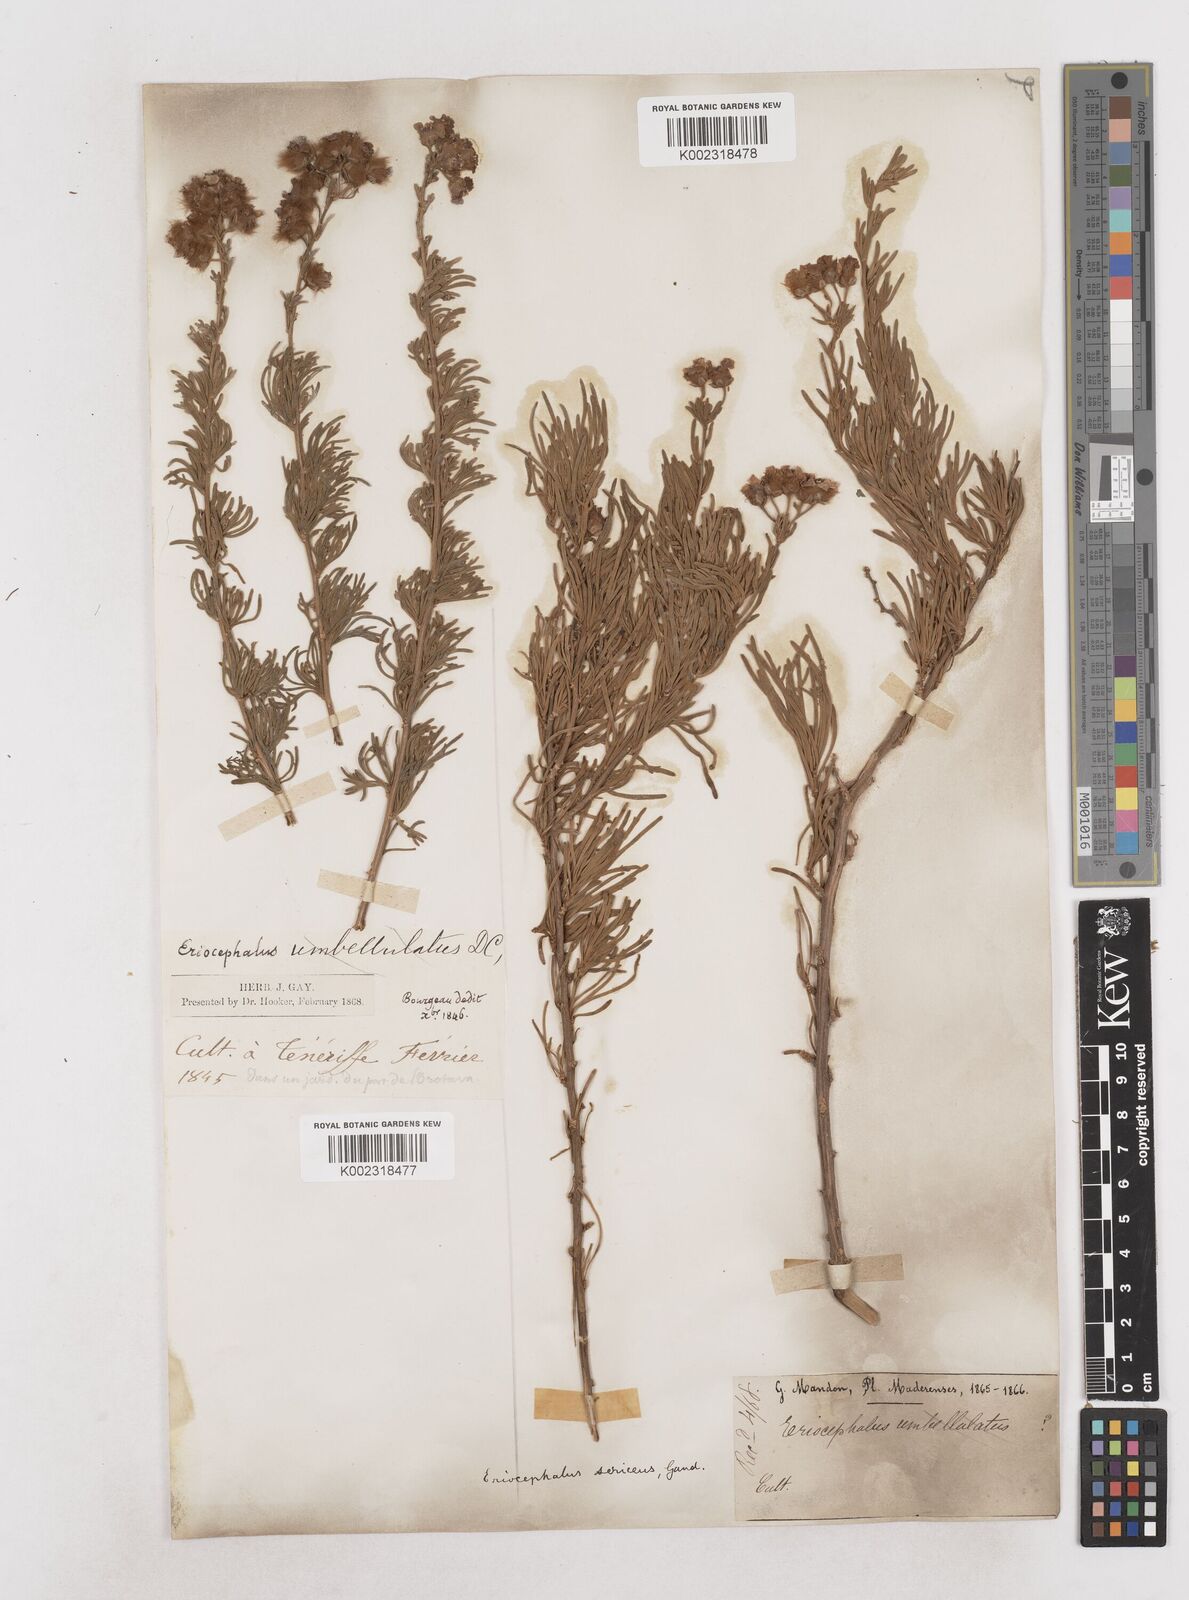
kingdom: Plantae
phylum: Tracheophyta
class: Magnoliopsida
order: Asterales
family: Asteraceae
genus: Eriocephalus
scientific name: Eriocephalus africanus
